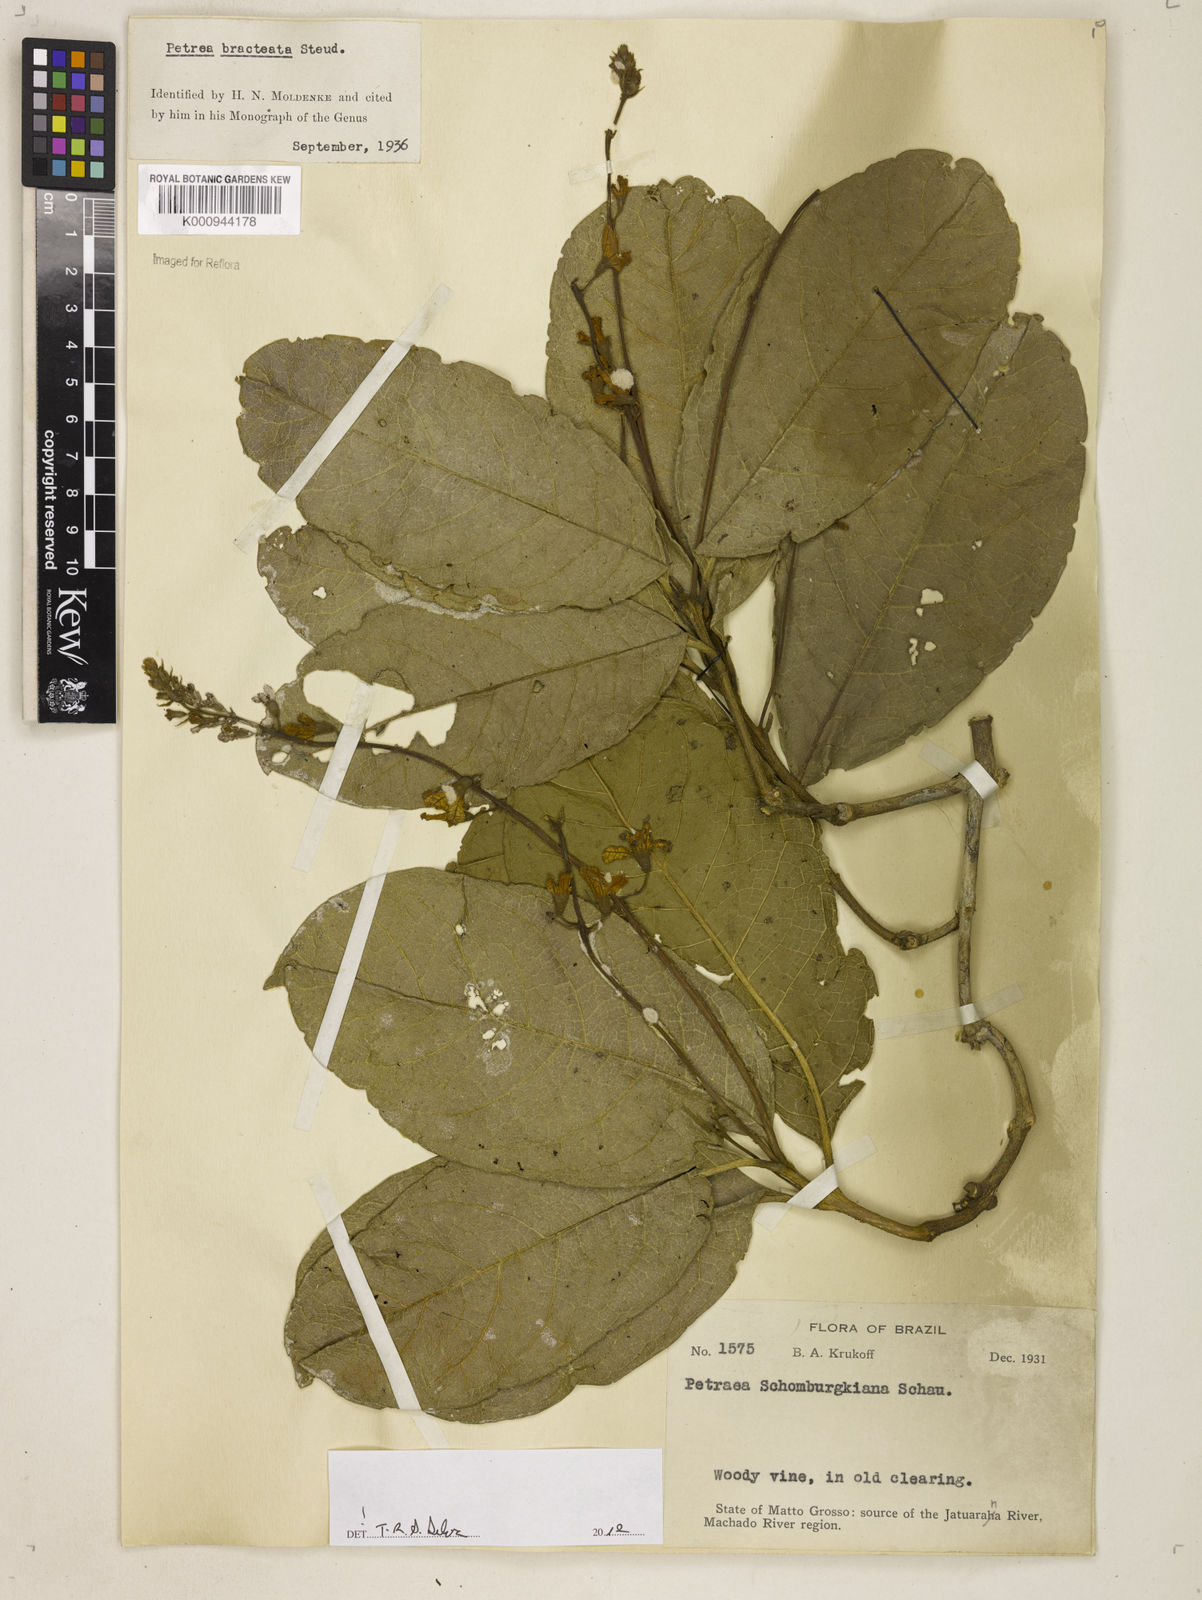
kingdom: Plantae
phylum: Tracheophyta
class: Magnoliopsida
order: Lamiales
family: Verbenaceae
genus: Petrea
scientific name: Petrea bracteata
